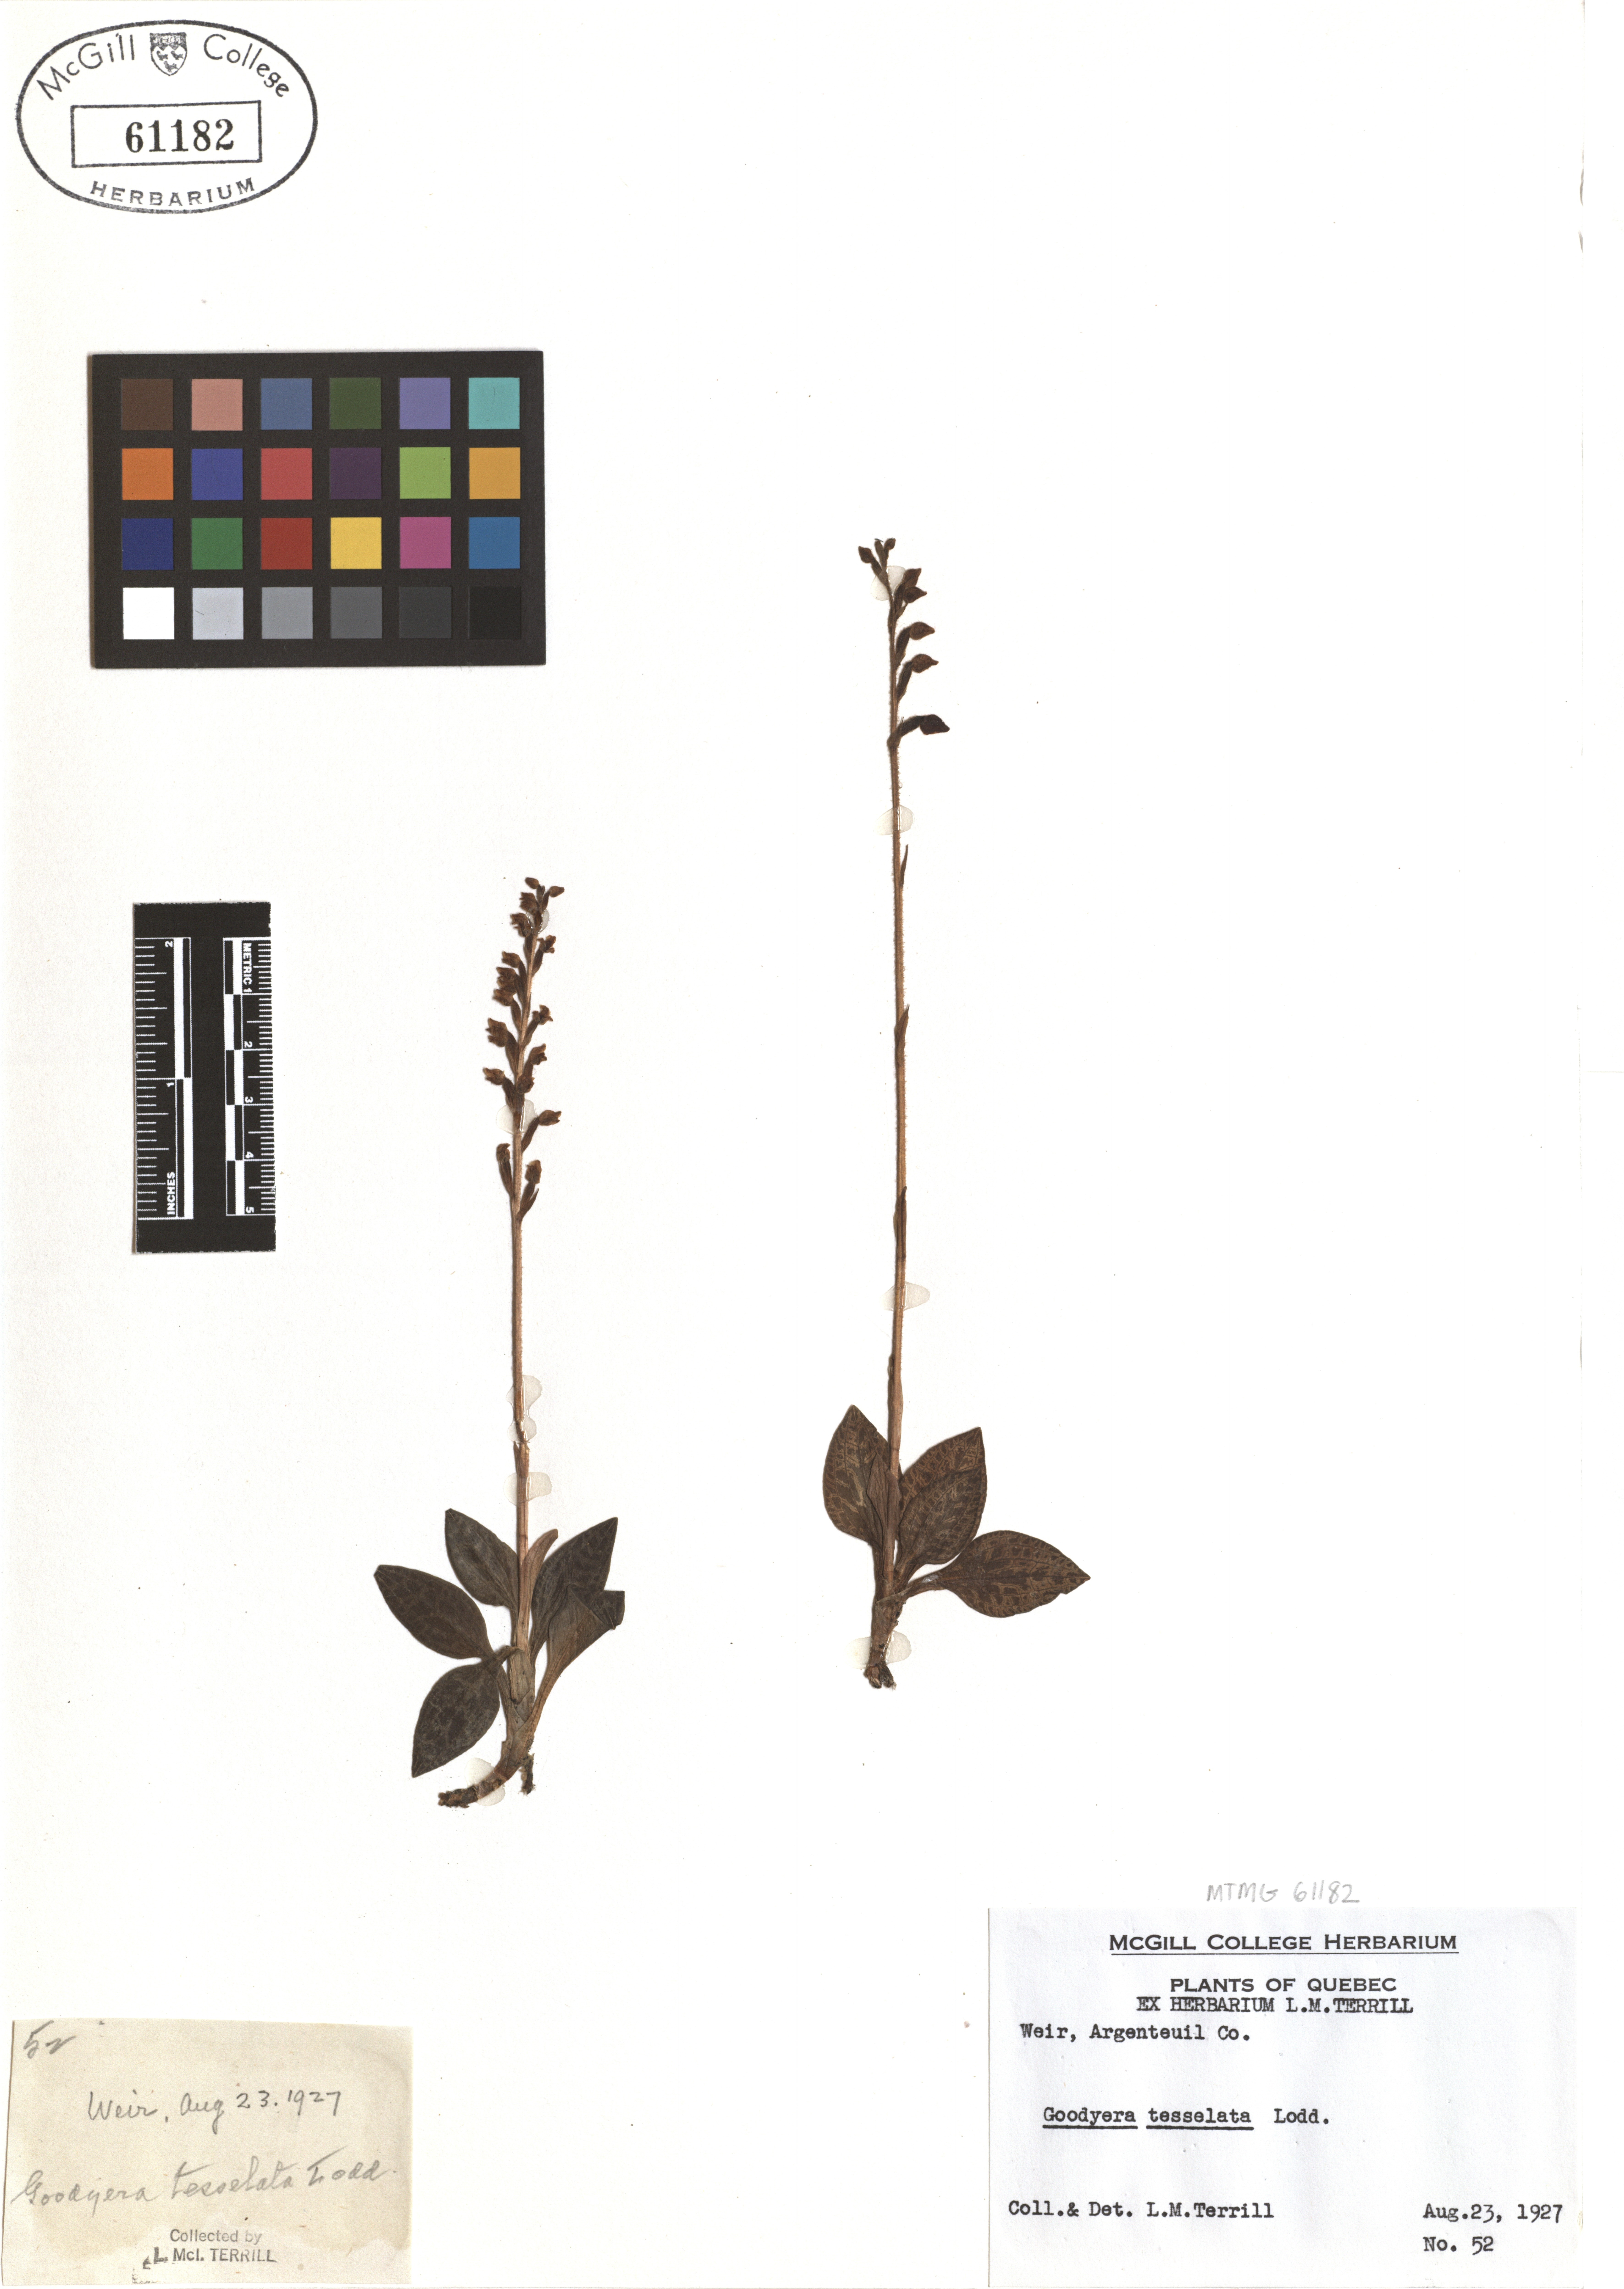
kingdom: Plantae
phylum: Tracheophyta
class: Liliopsida
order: Asparagales
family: Orchidaceae
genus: Goodyera
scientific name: Goodyera tesselata
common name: Checkered rattlesnake-plantain
